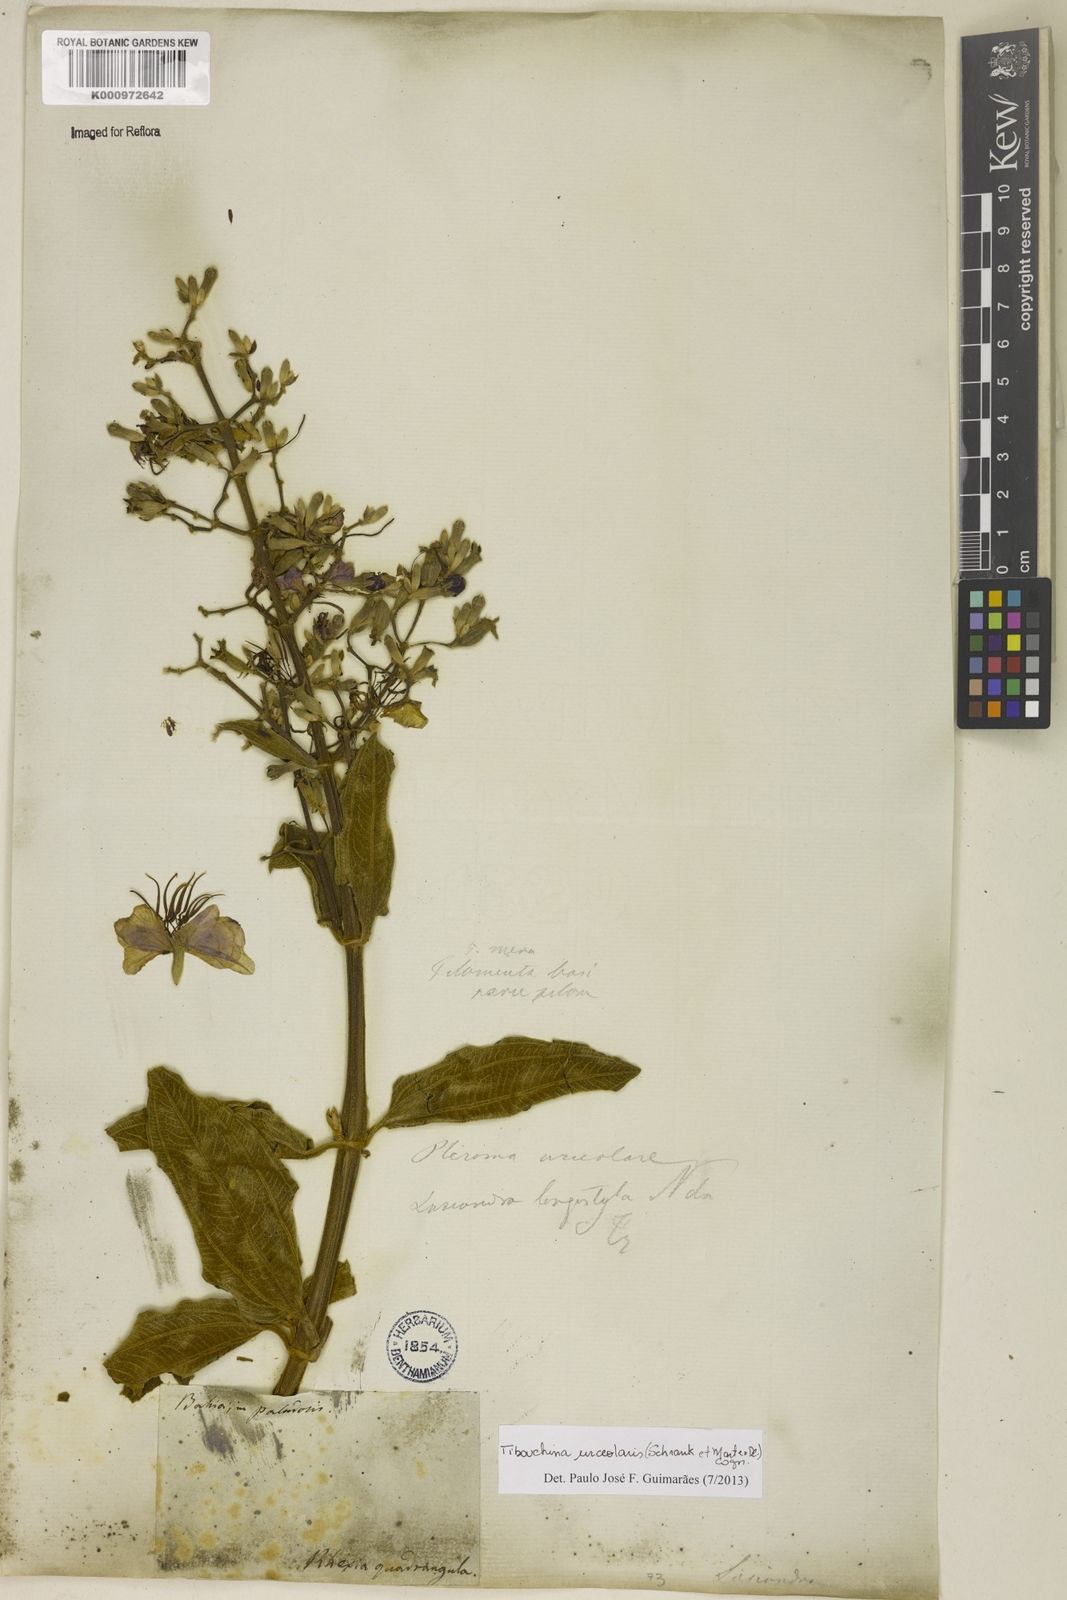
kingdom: Plantae
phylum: Tracheophyta
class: Magnoliopsida
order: Myrtales
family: Melastomataceae
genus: Pleroma
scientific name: Pleroma urceolare
